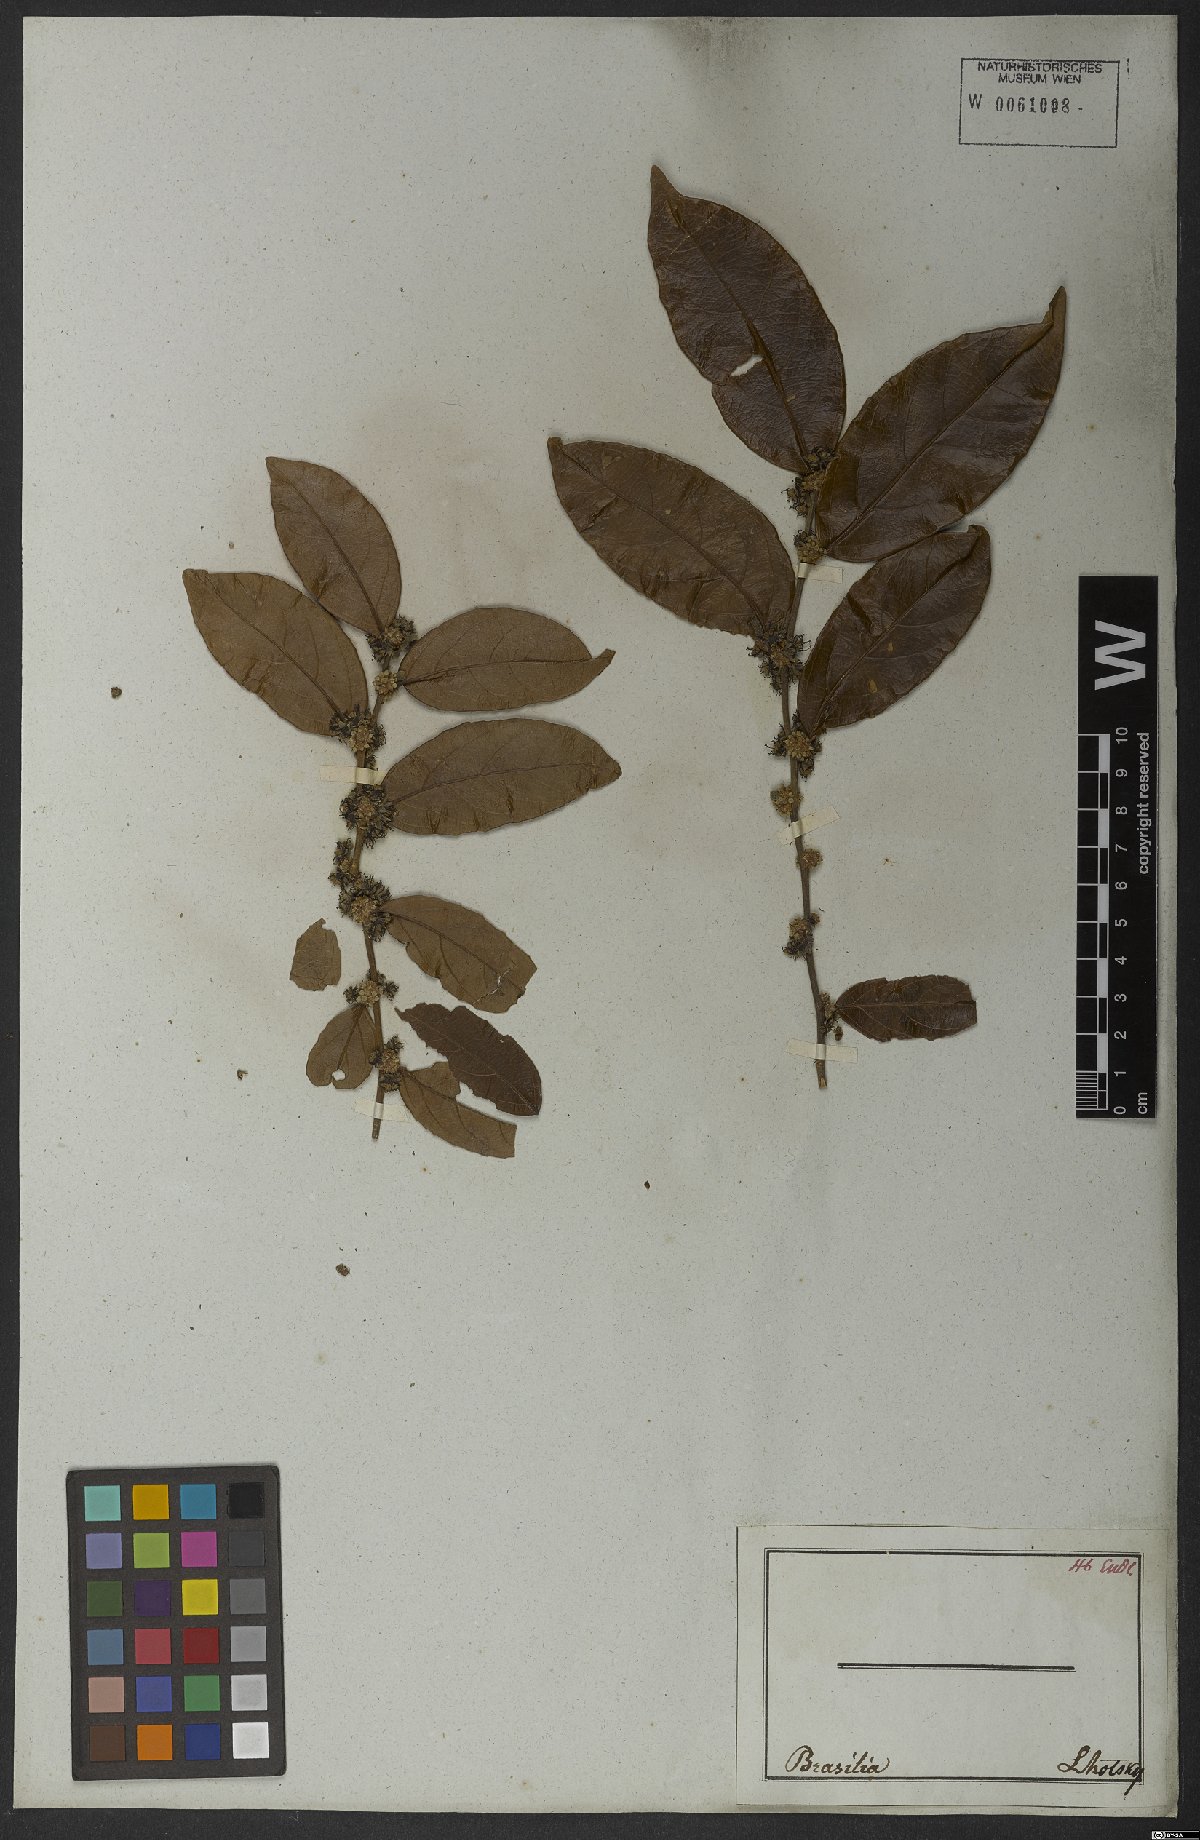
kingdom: Plantae
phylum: Tracheophyta
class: Magnoliopsida
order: Malpighiales
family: Salicaceae
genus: Casearia
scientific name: Casearia
